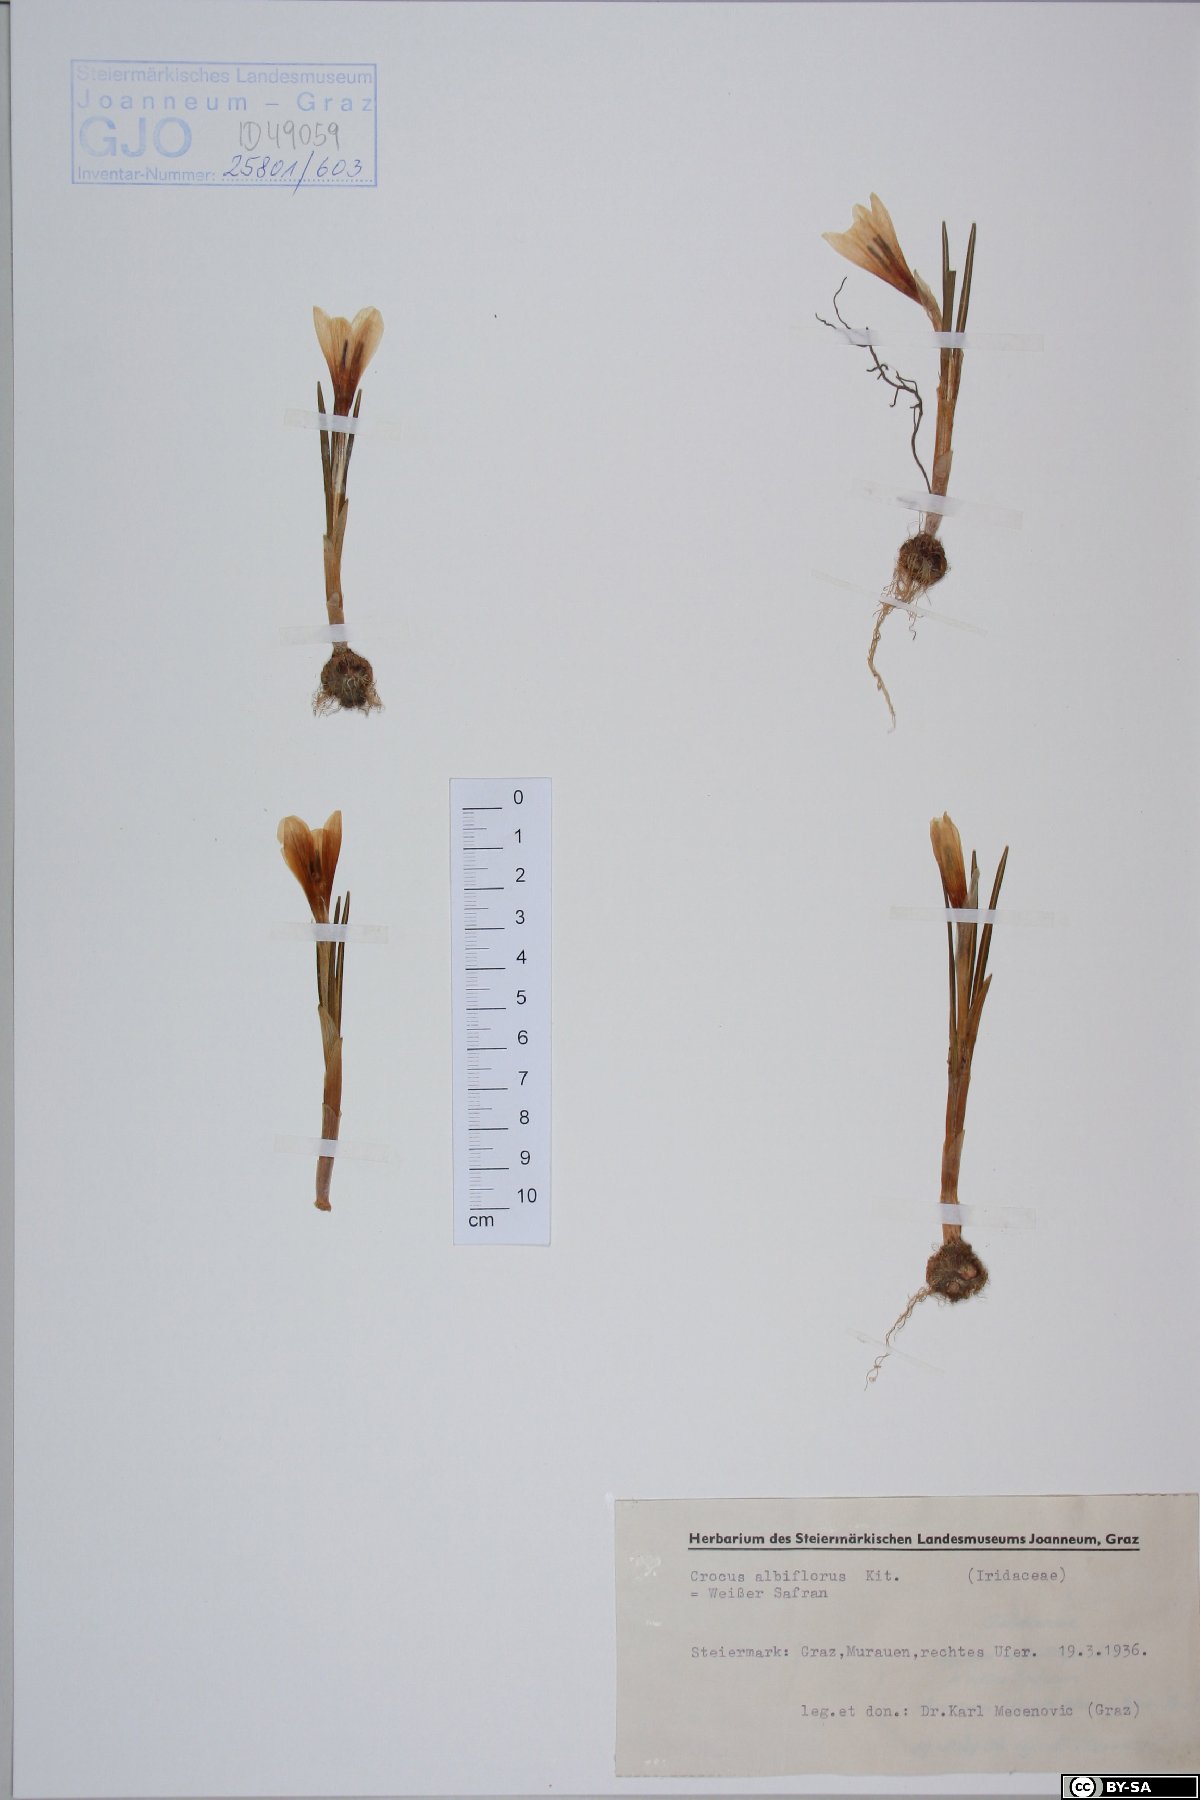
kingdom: Plantae
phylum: Tracheophyta
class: Liliopsida
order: Asparagales
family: Iridaceae
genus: Crocus
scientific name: Crocus vernus
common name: Spring crocus
